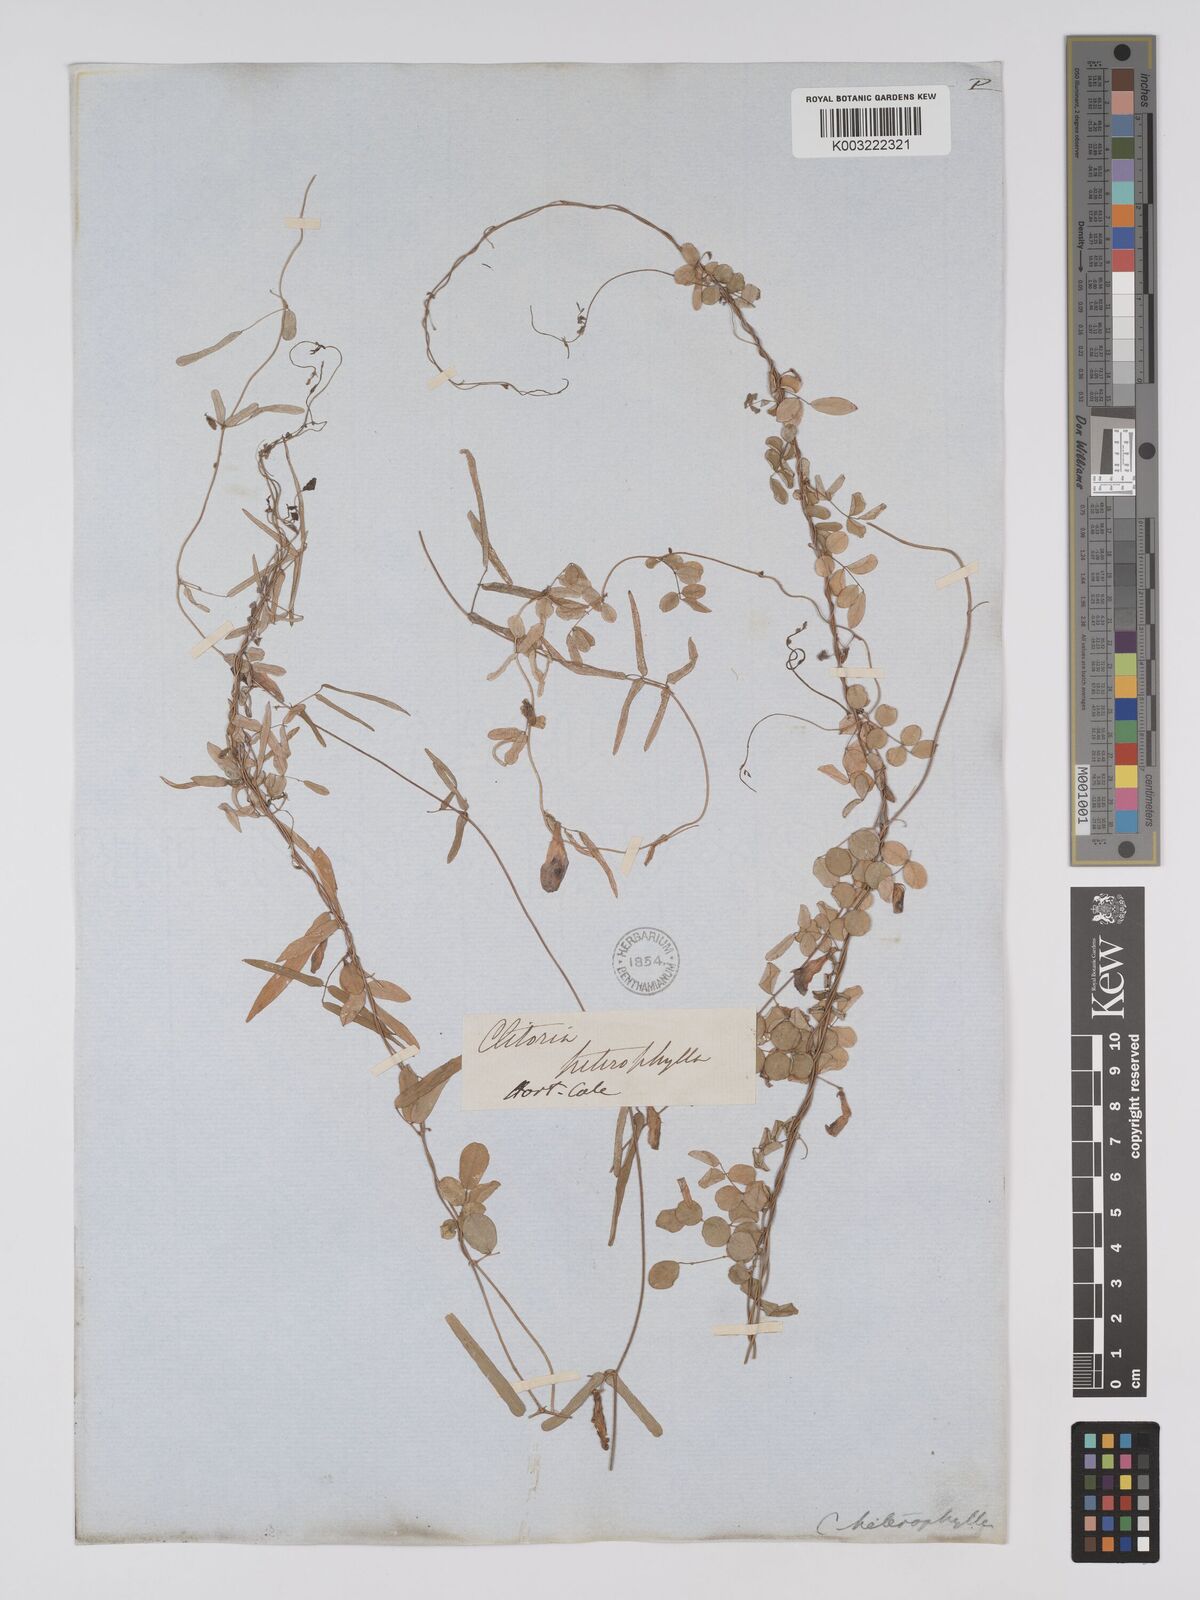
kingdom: Plantae
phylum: Tracheophyta
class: Magnoliopsida
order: Fabales
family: Fabaceae
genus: Clitoria
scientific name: Clitoria heterophylla
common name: Pigeonwings
